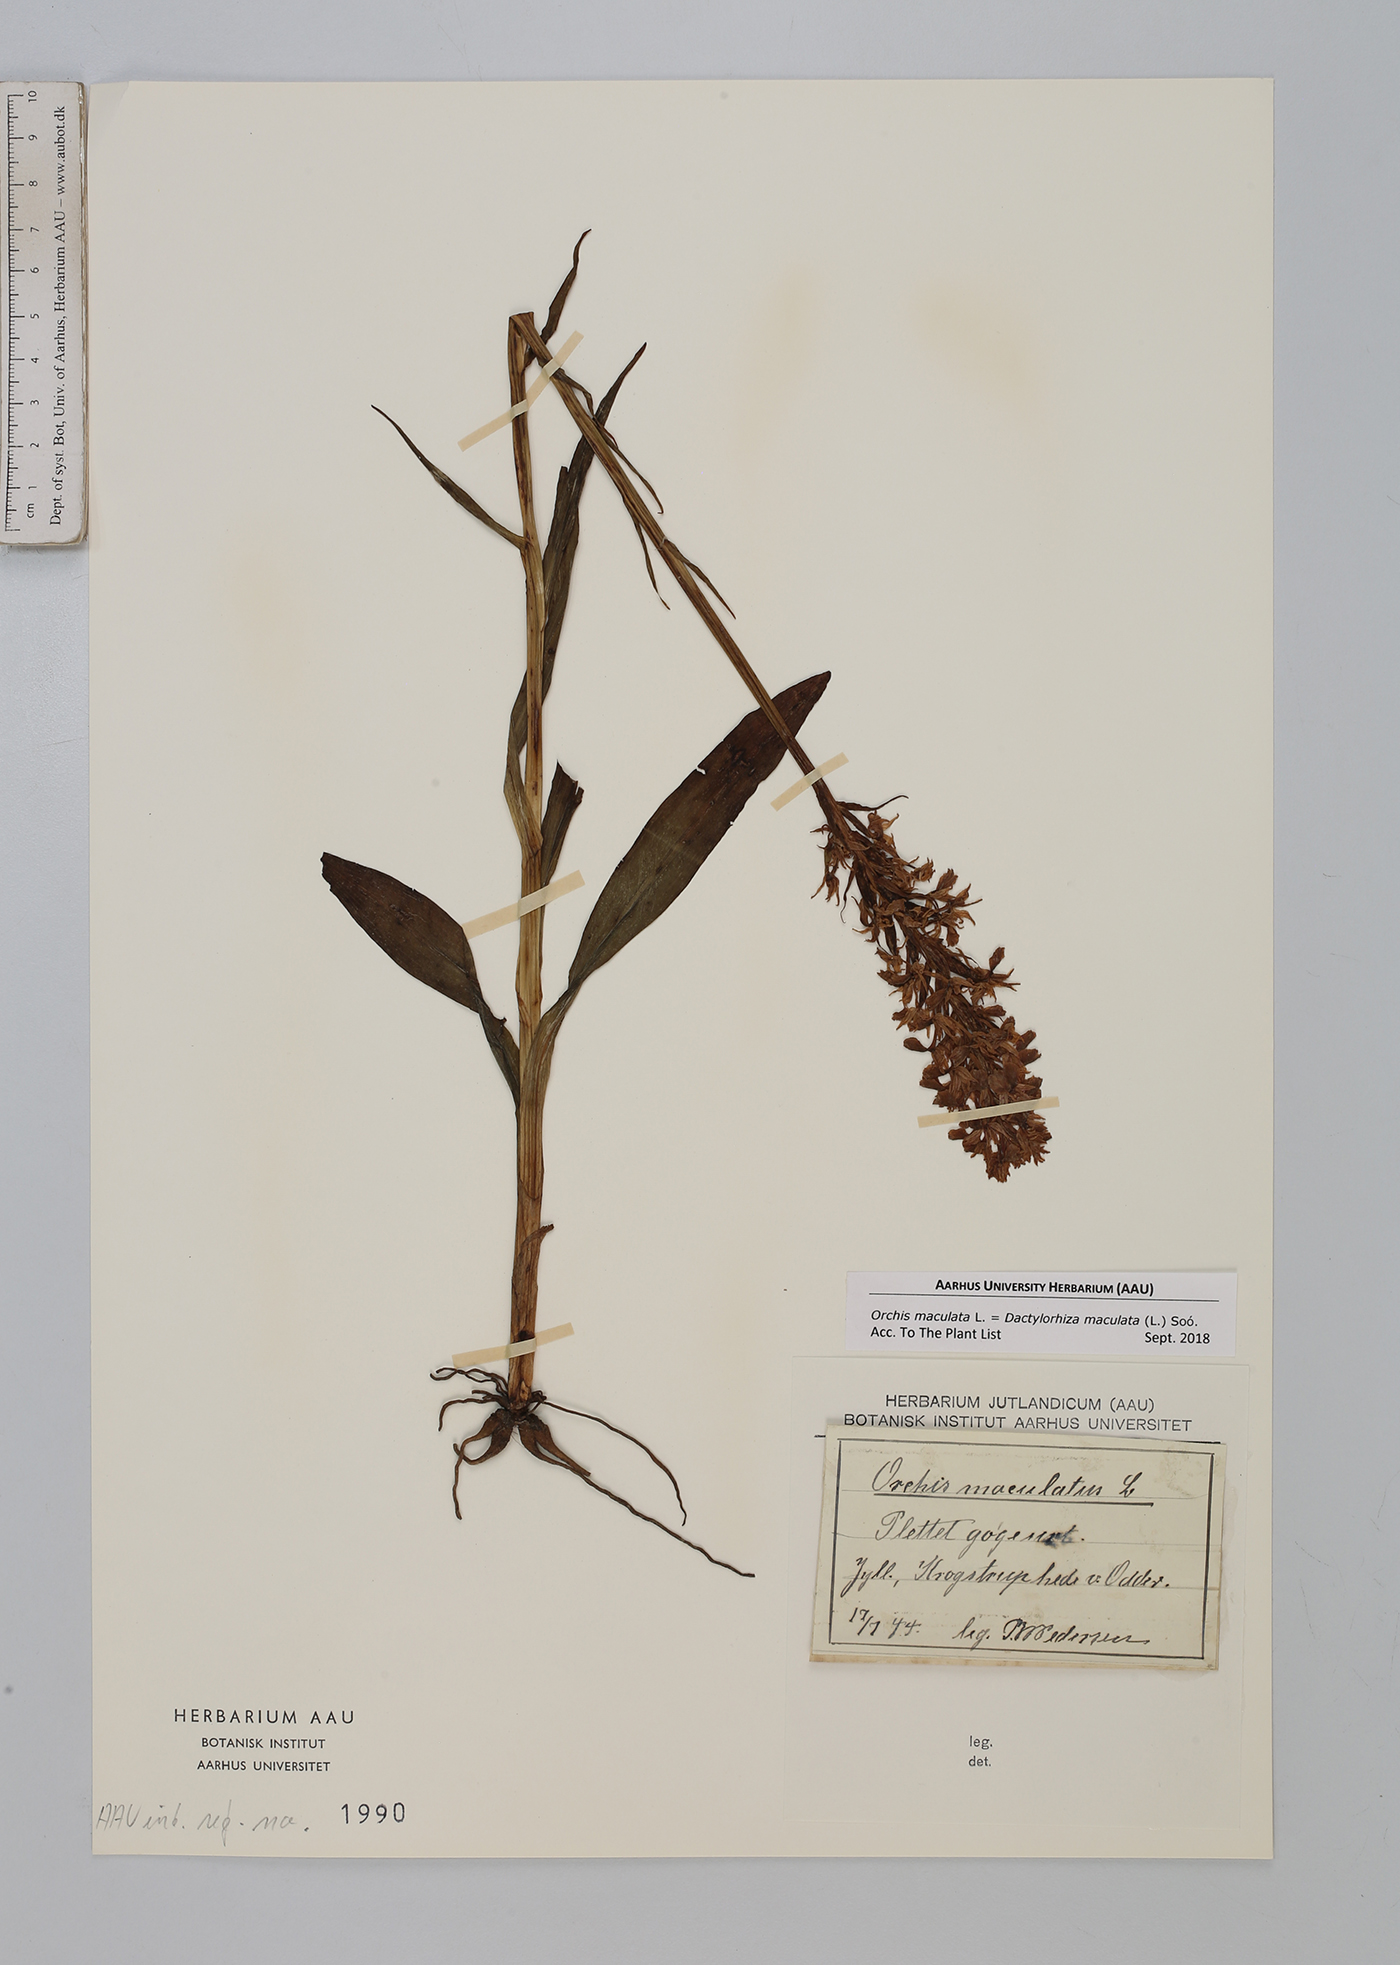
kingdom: Plantae
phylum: Tracheophyta
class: Liliopsida
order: Asparagales
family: Orchidaceae
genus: Dactylorhiza
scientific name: Dactylorhiza maculata
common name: Heath spotted-orchid
